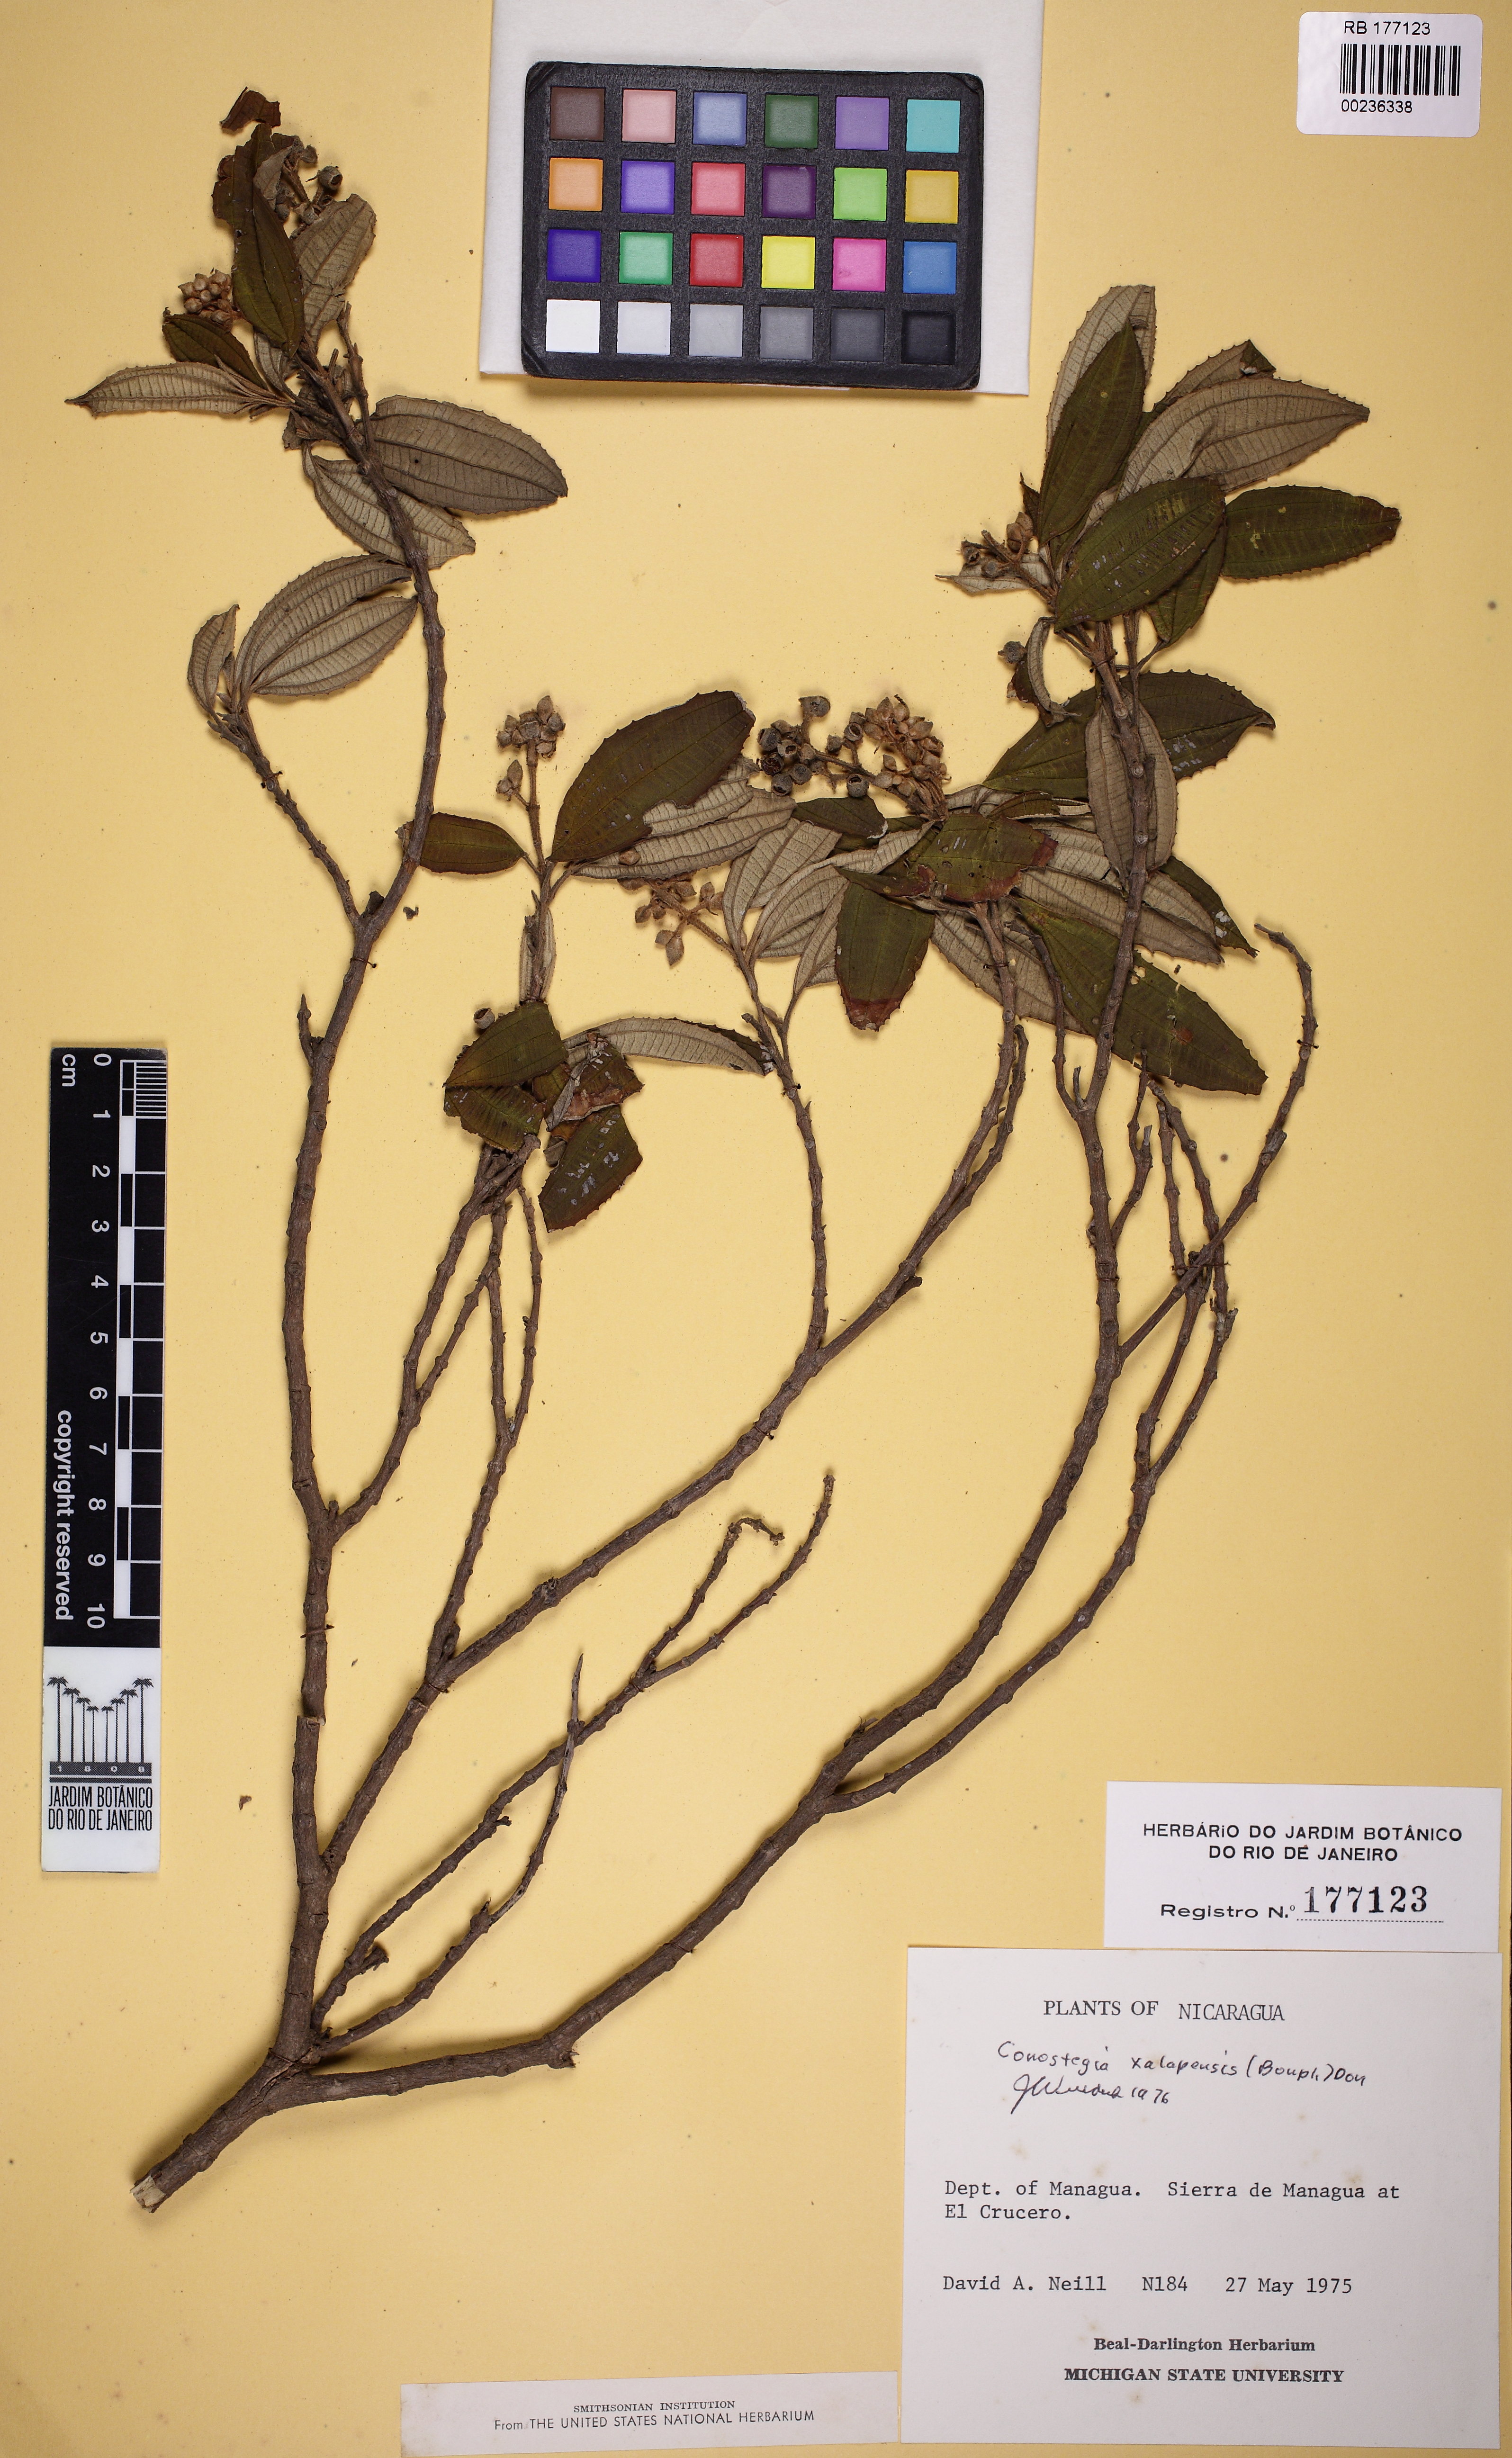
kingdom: Plantae
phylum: Tracheophyta
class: Magnoliopsida
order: Myrtales
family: Melastomataceae
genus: Miconia
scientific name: Miconia xalapensis
